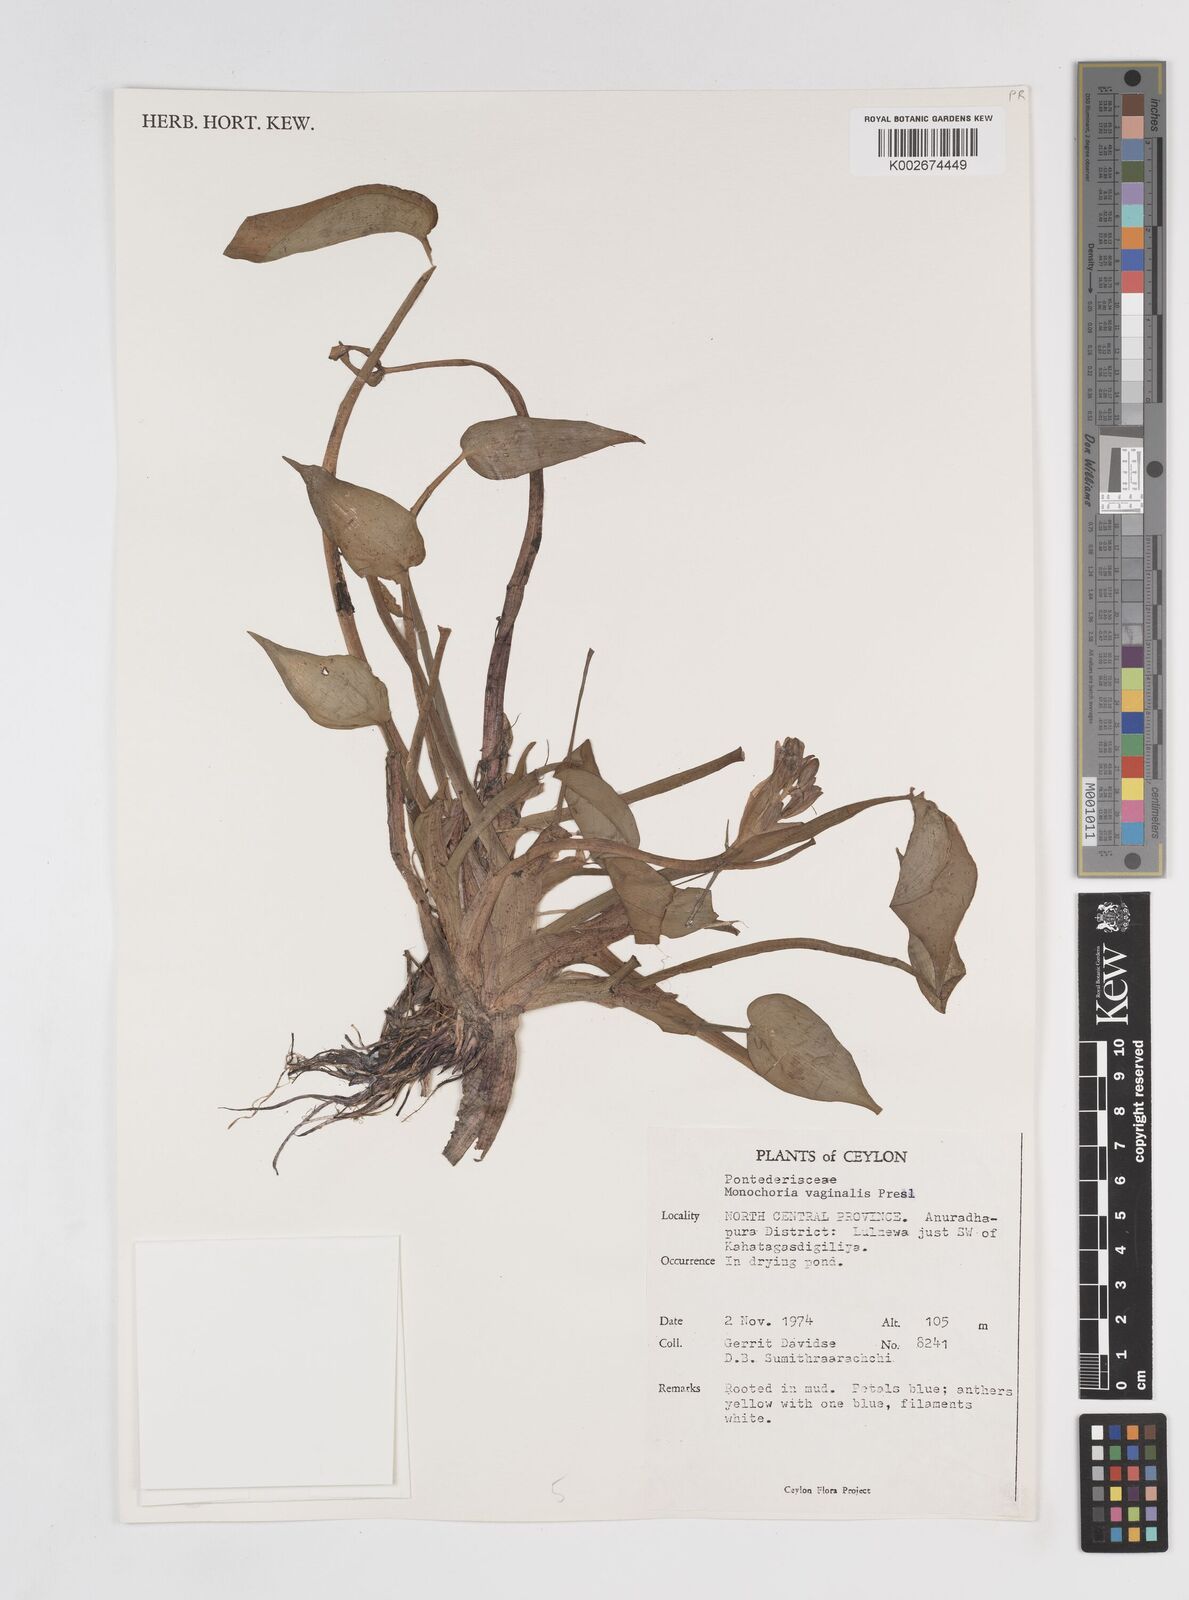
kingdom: Plantae
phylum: Tracheophyta
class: Liliopsida
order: Commelinales
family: Pontederiaceae
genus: Pontederia
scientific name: Pontederia vaginalis
